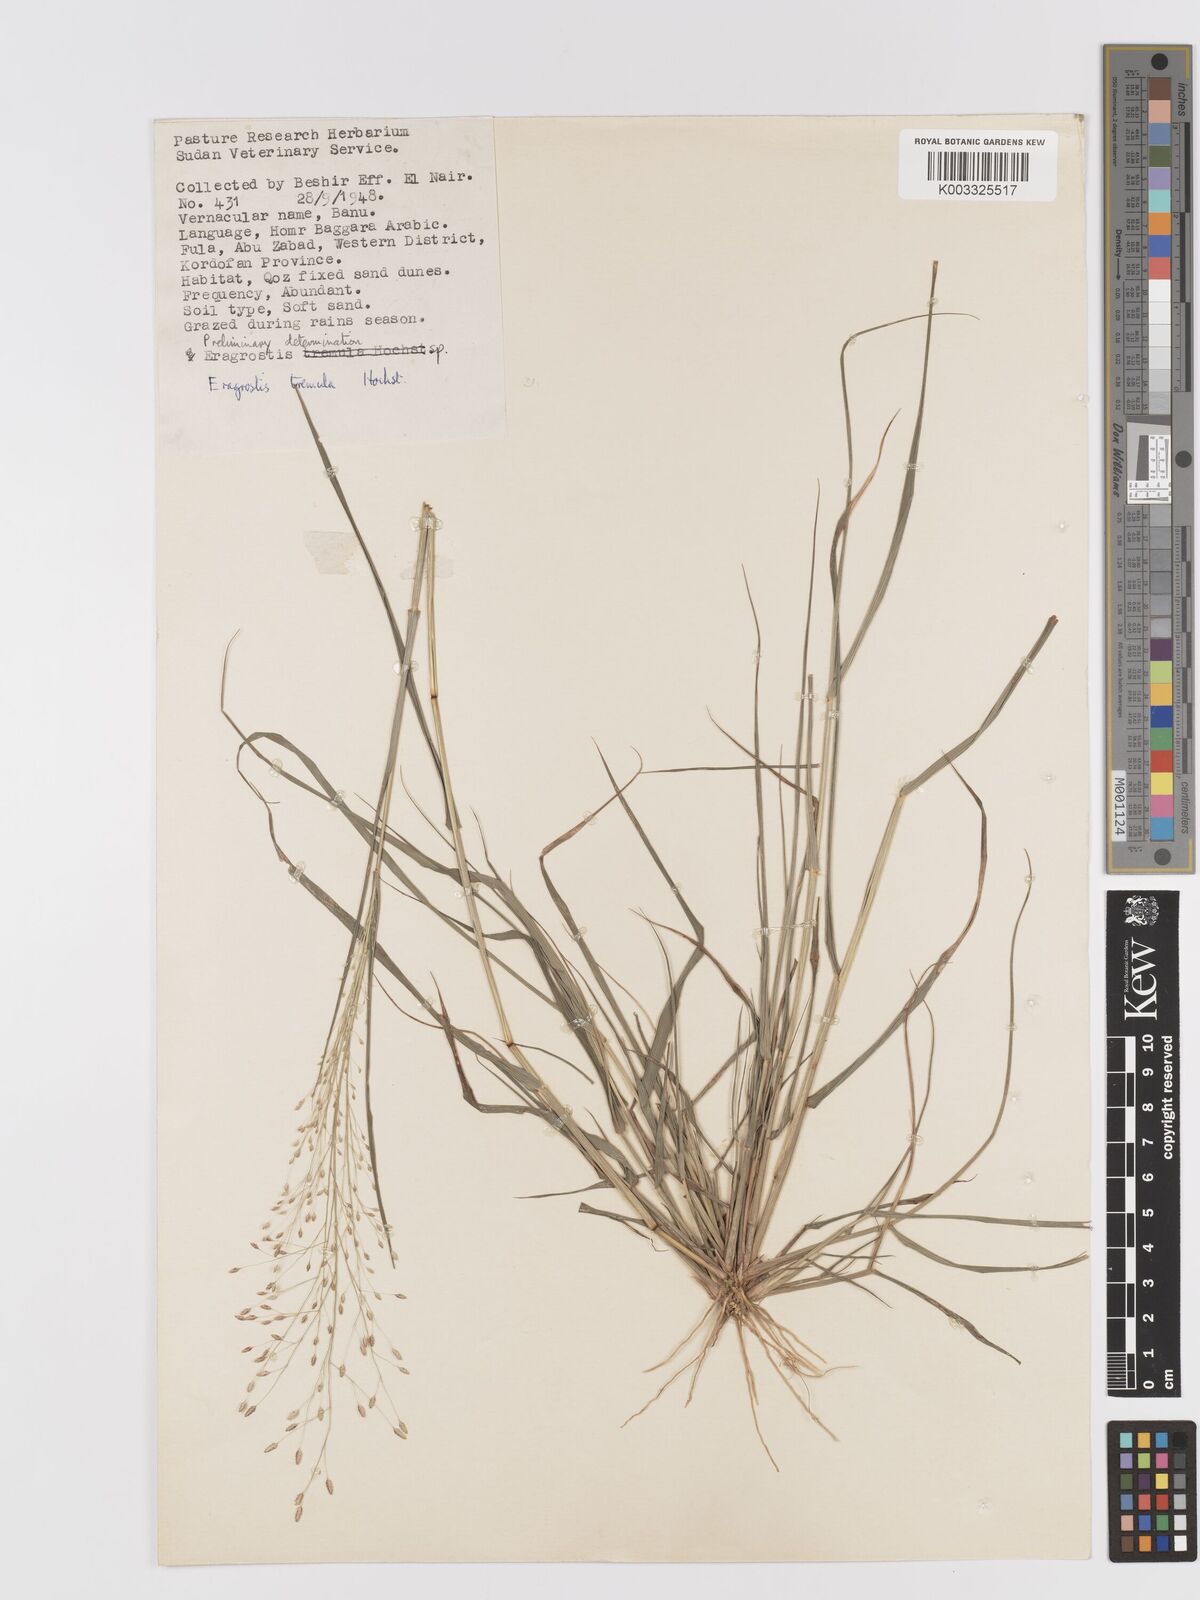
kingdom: Plantae
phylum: Tracheophyta
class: Liliopsida
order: Poales
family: Poaceae
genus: Eragrostis
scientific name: Eragrostis tremula
